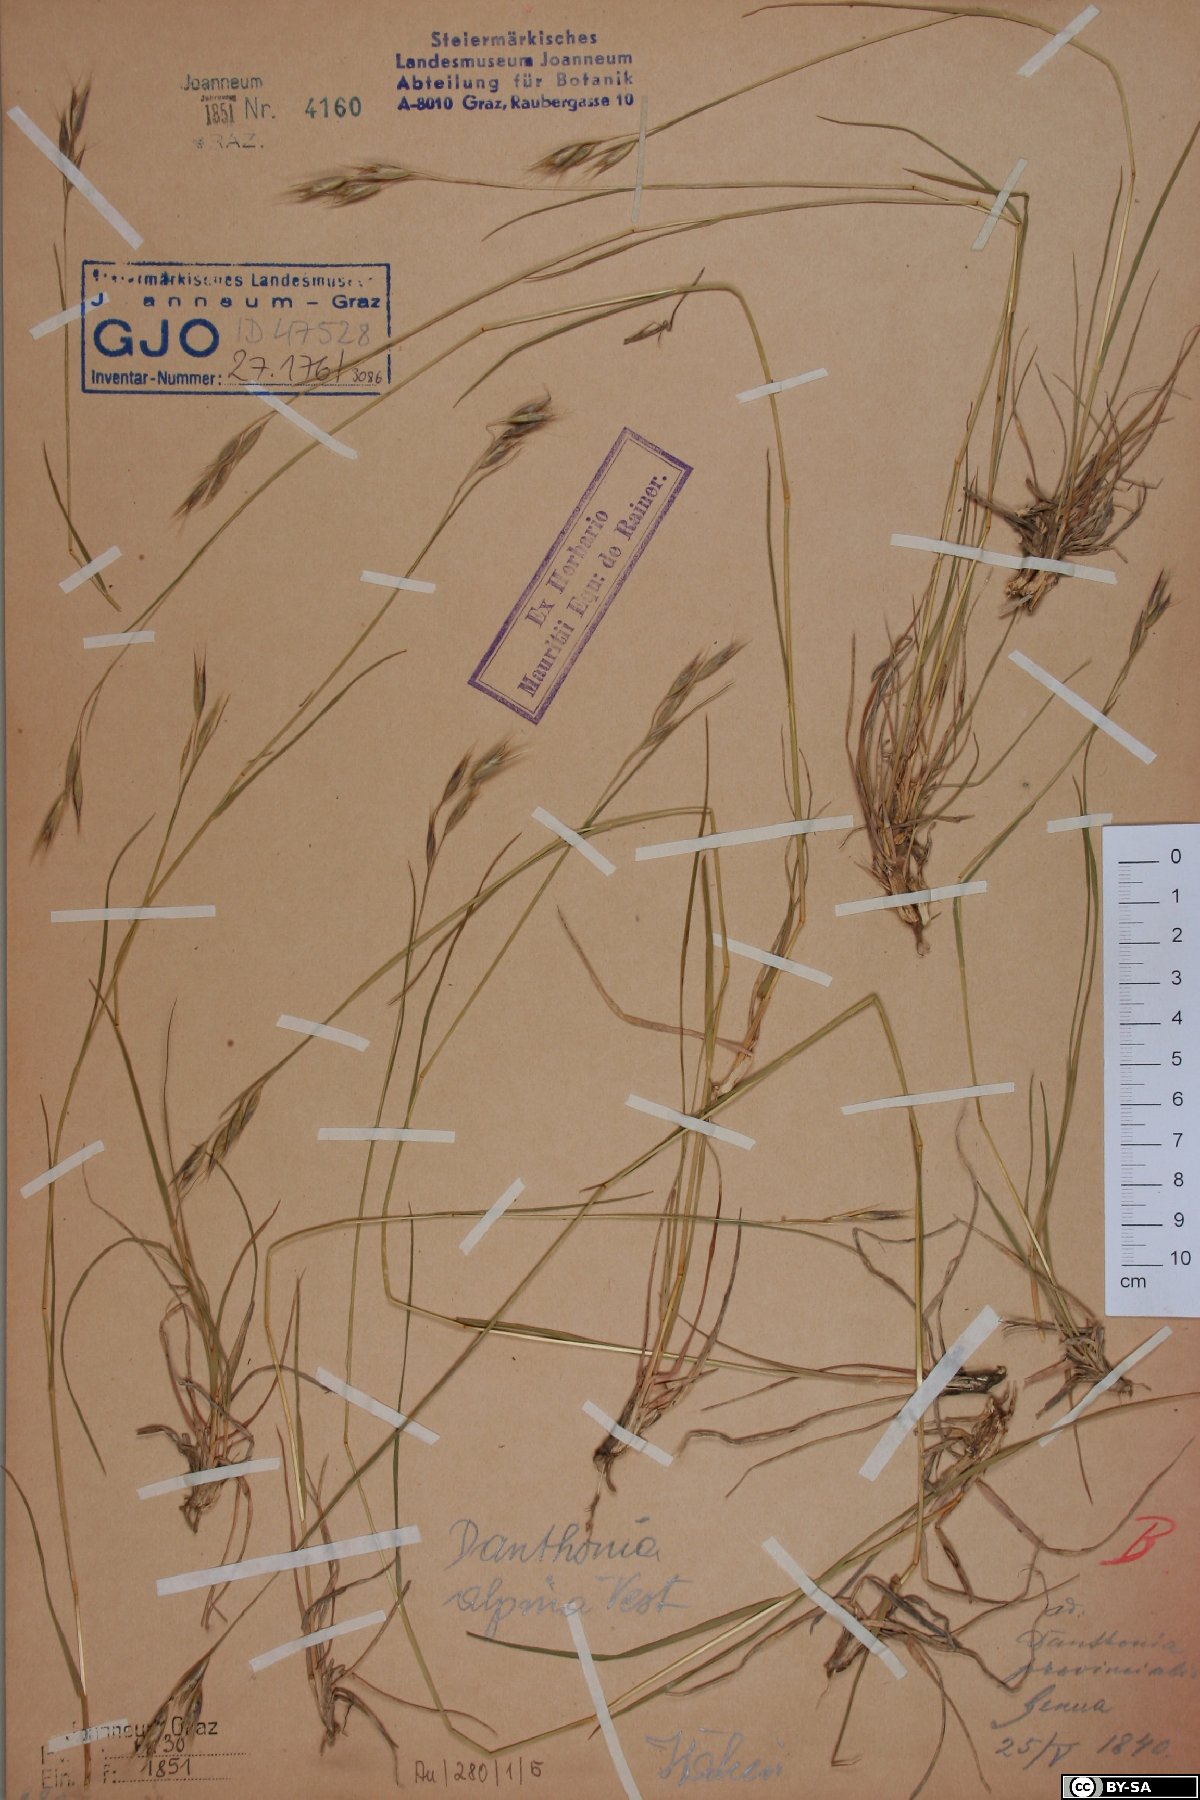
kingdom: Plantae
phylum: Tracheophyta
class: Liliopsida
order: Poales
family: Poaceae
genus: Danthonia
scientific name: Danthonia alpina
